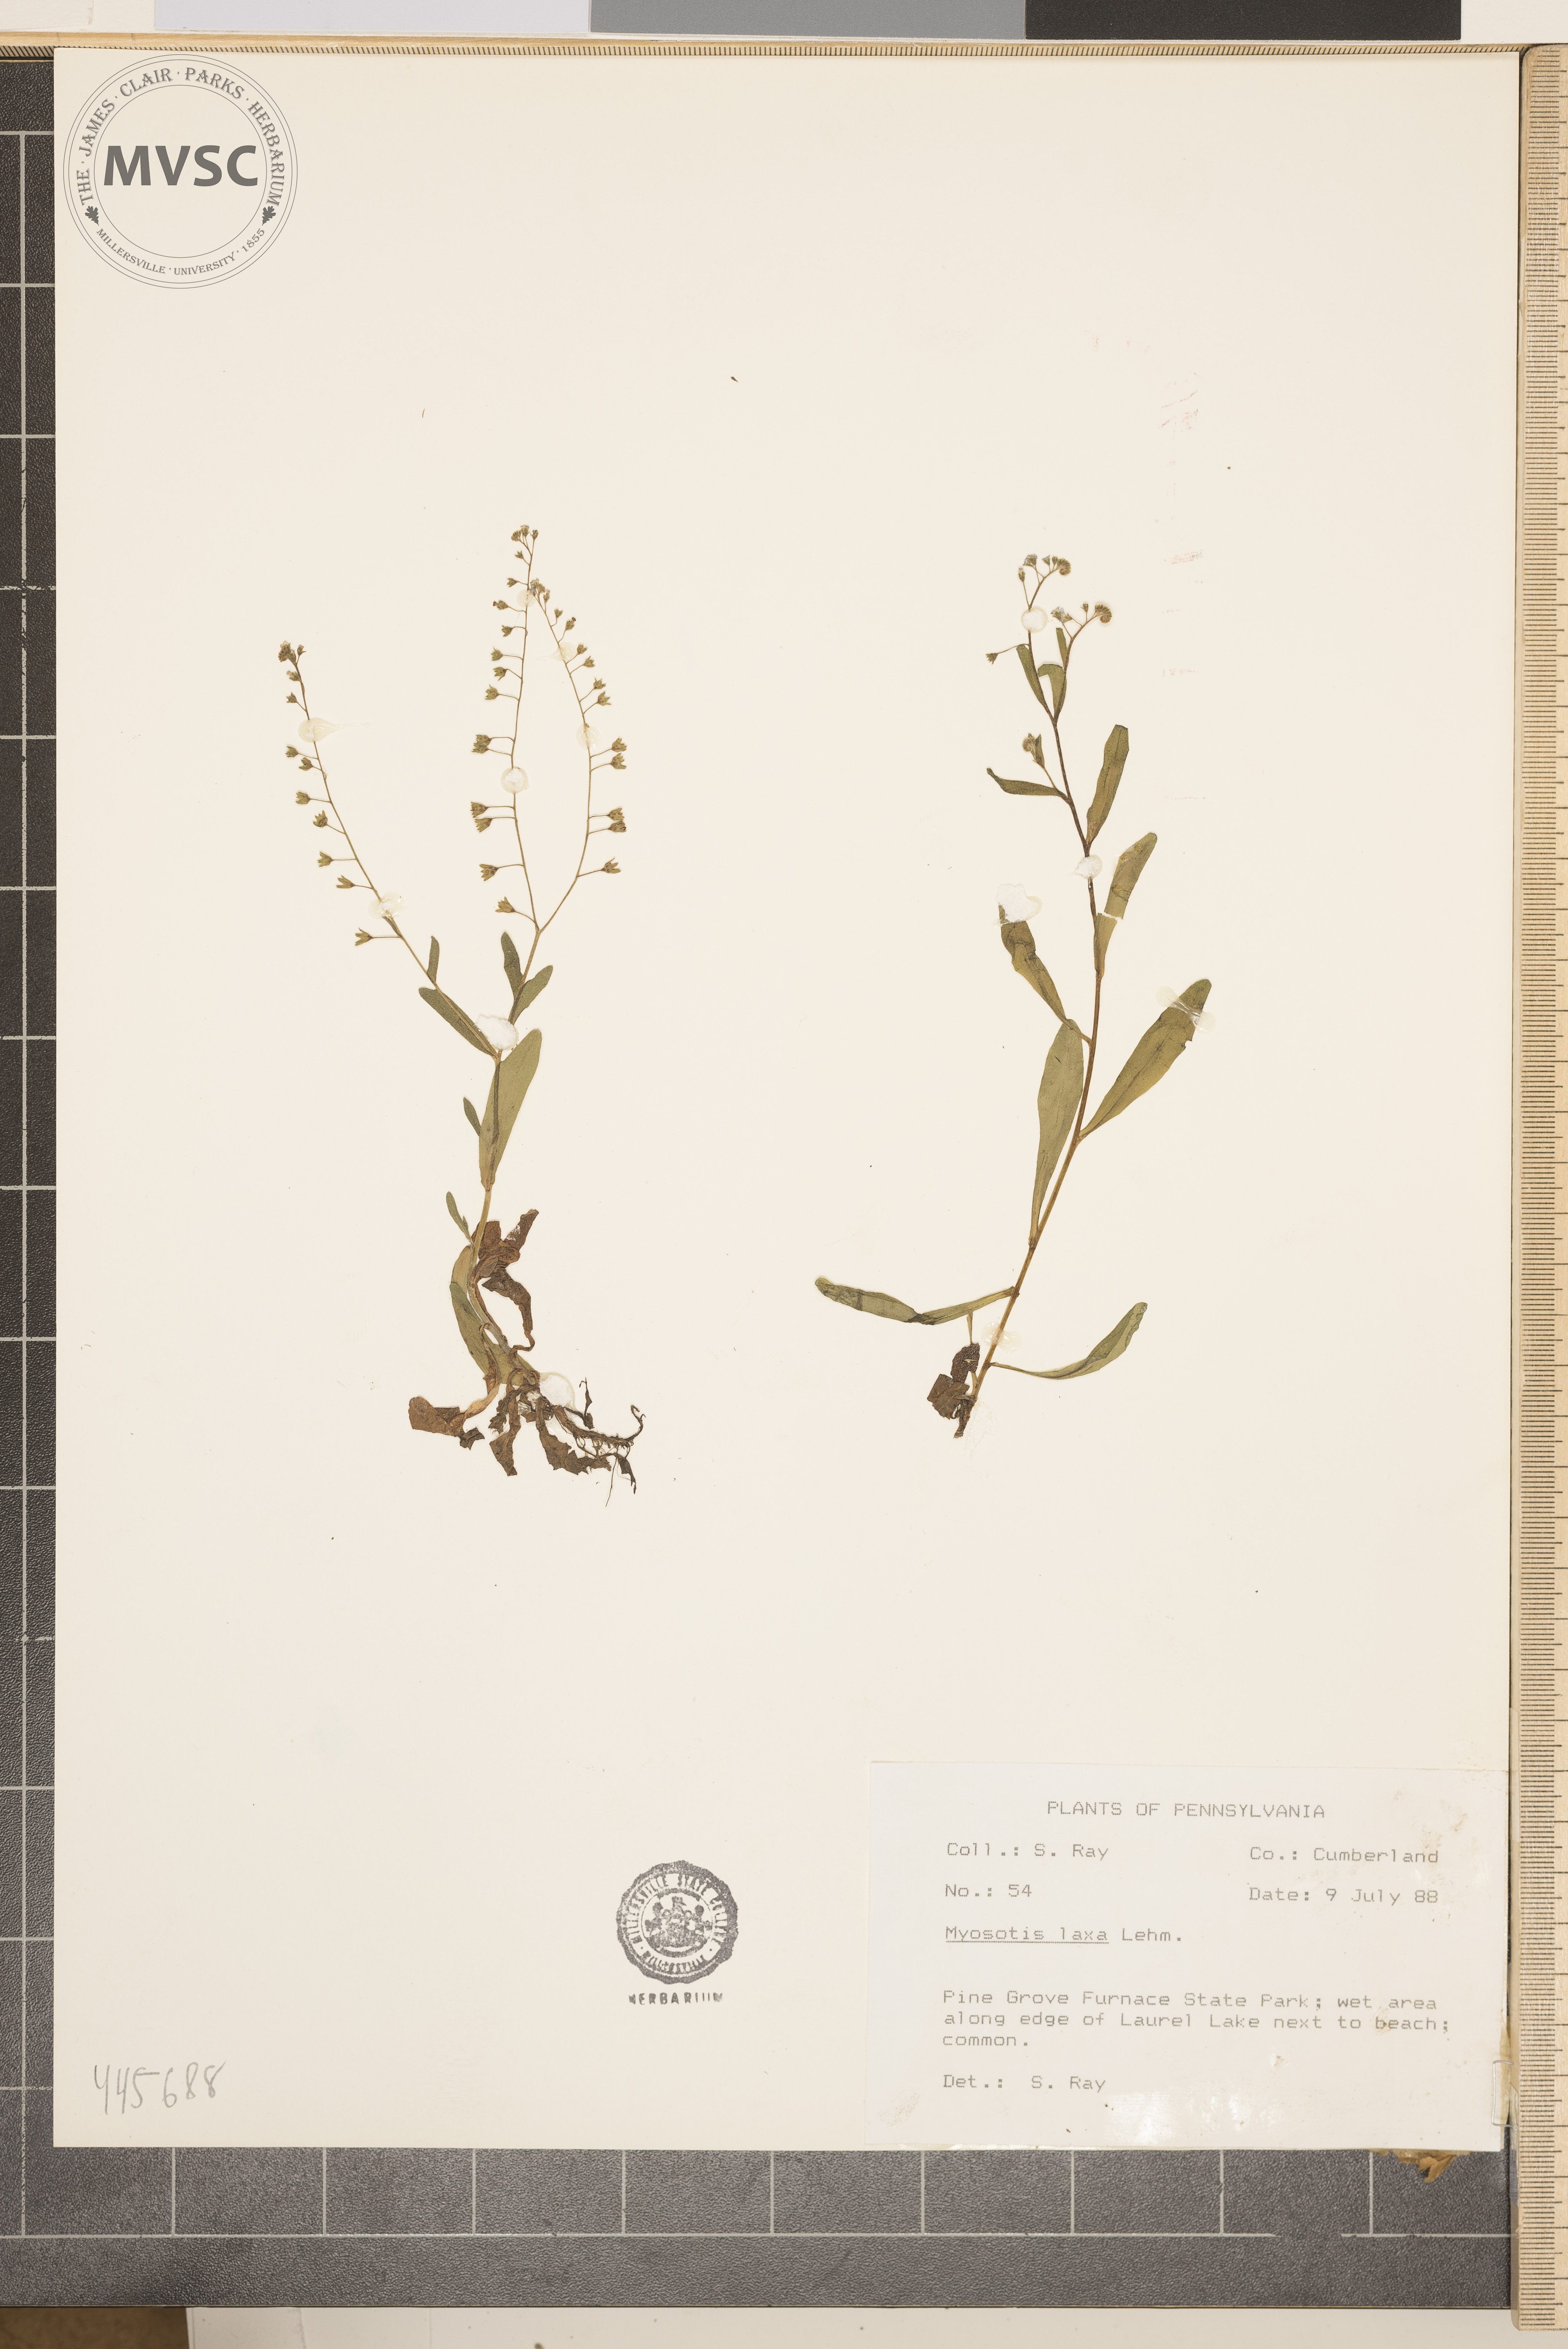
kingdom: Plantae
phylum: Tracheophyta
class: Magnoliopsida
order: Boraginales
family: Boraginaceae
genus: Myosotis
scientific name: Myosotis laxa
